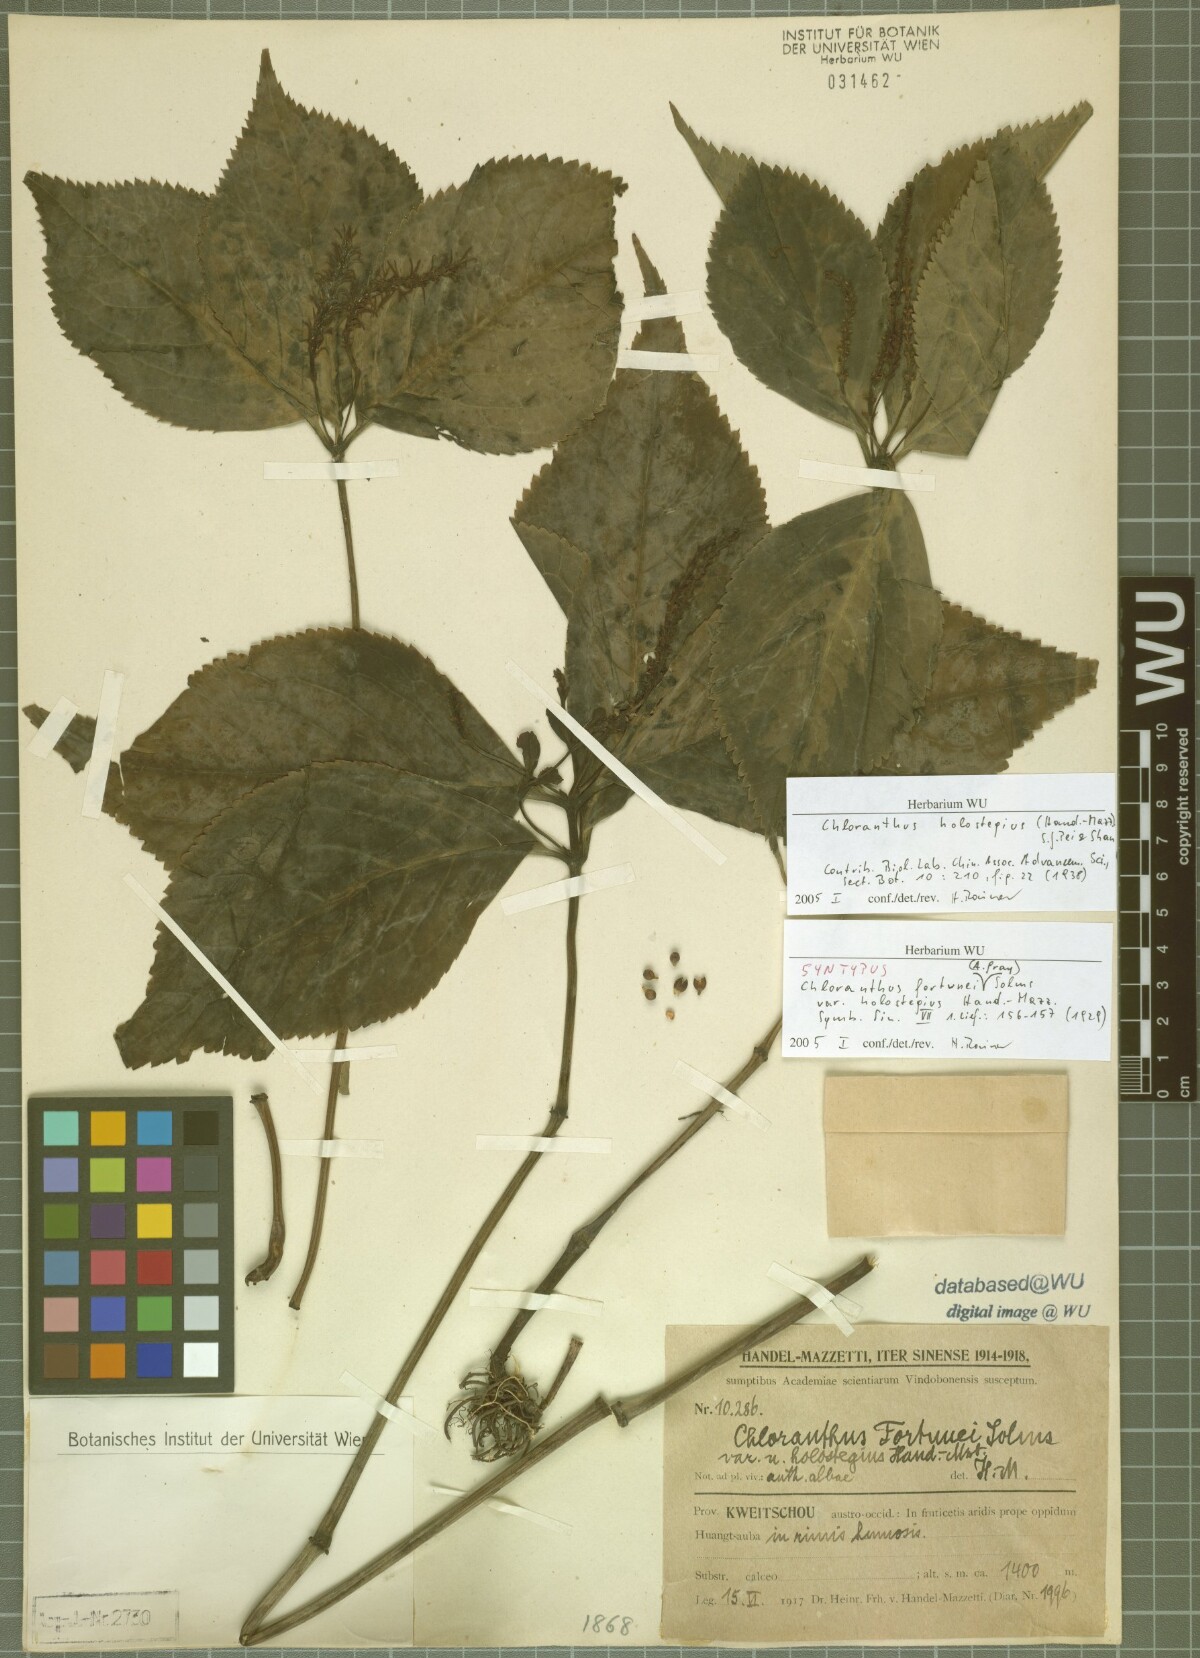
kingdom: Plantae
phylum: Tracheophyta
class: Magnoliopsida
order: Chloranthales
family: Chloranthaceae
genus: Chloranthus
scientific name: Chloranthus holostegius
